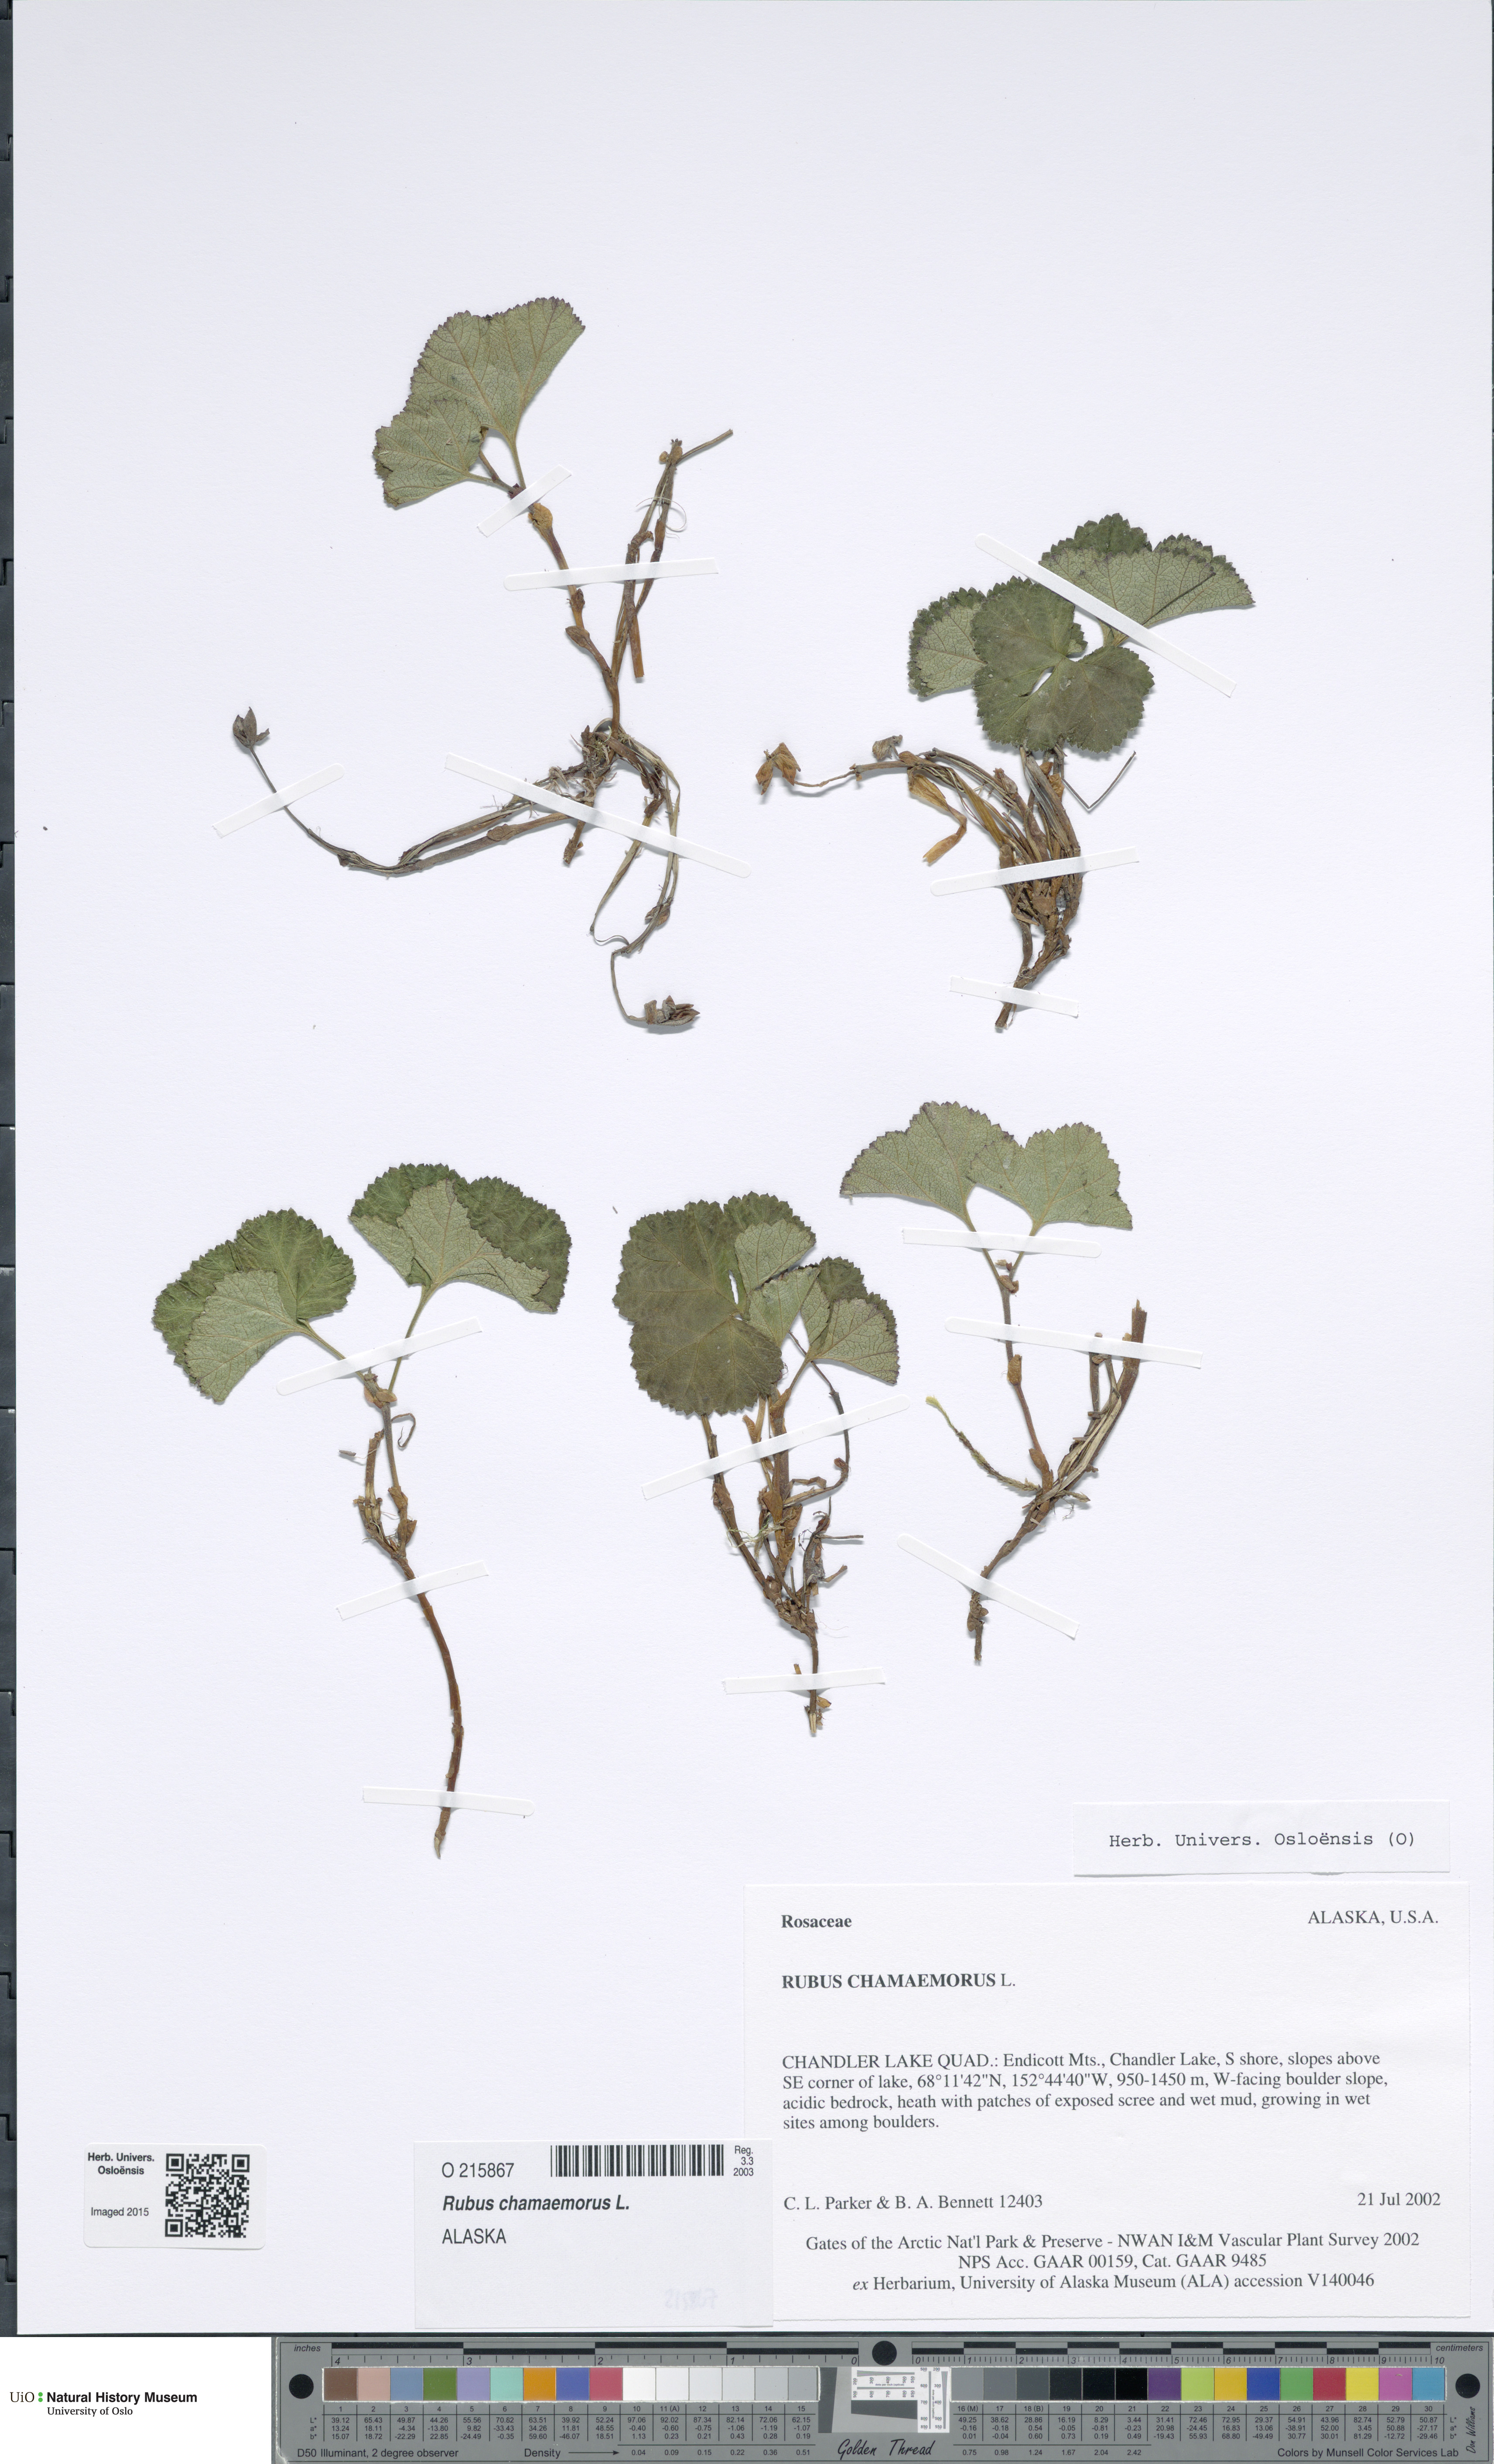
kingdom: Plantae
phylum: Tracheophyta
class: Magnoliopsida
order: Rosales
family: Rosaceae
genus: Rubus
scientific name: Rubus chamaemorus
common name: Cloudberry
